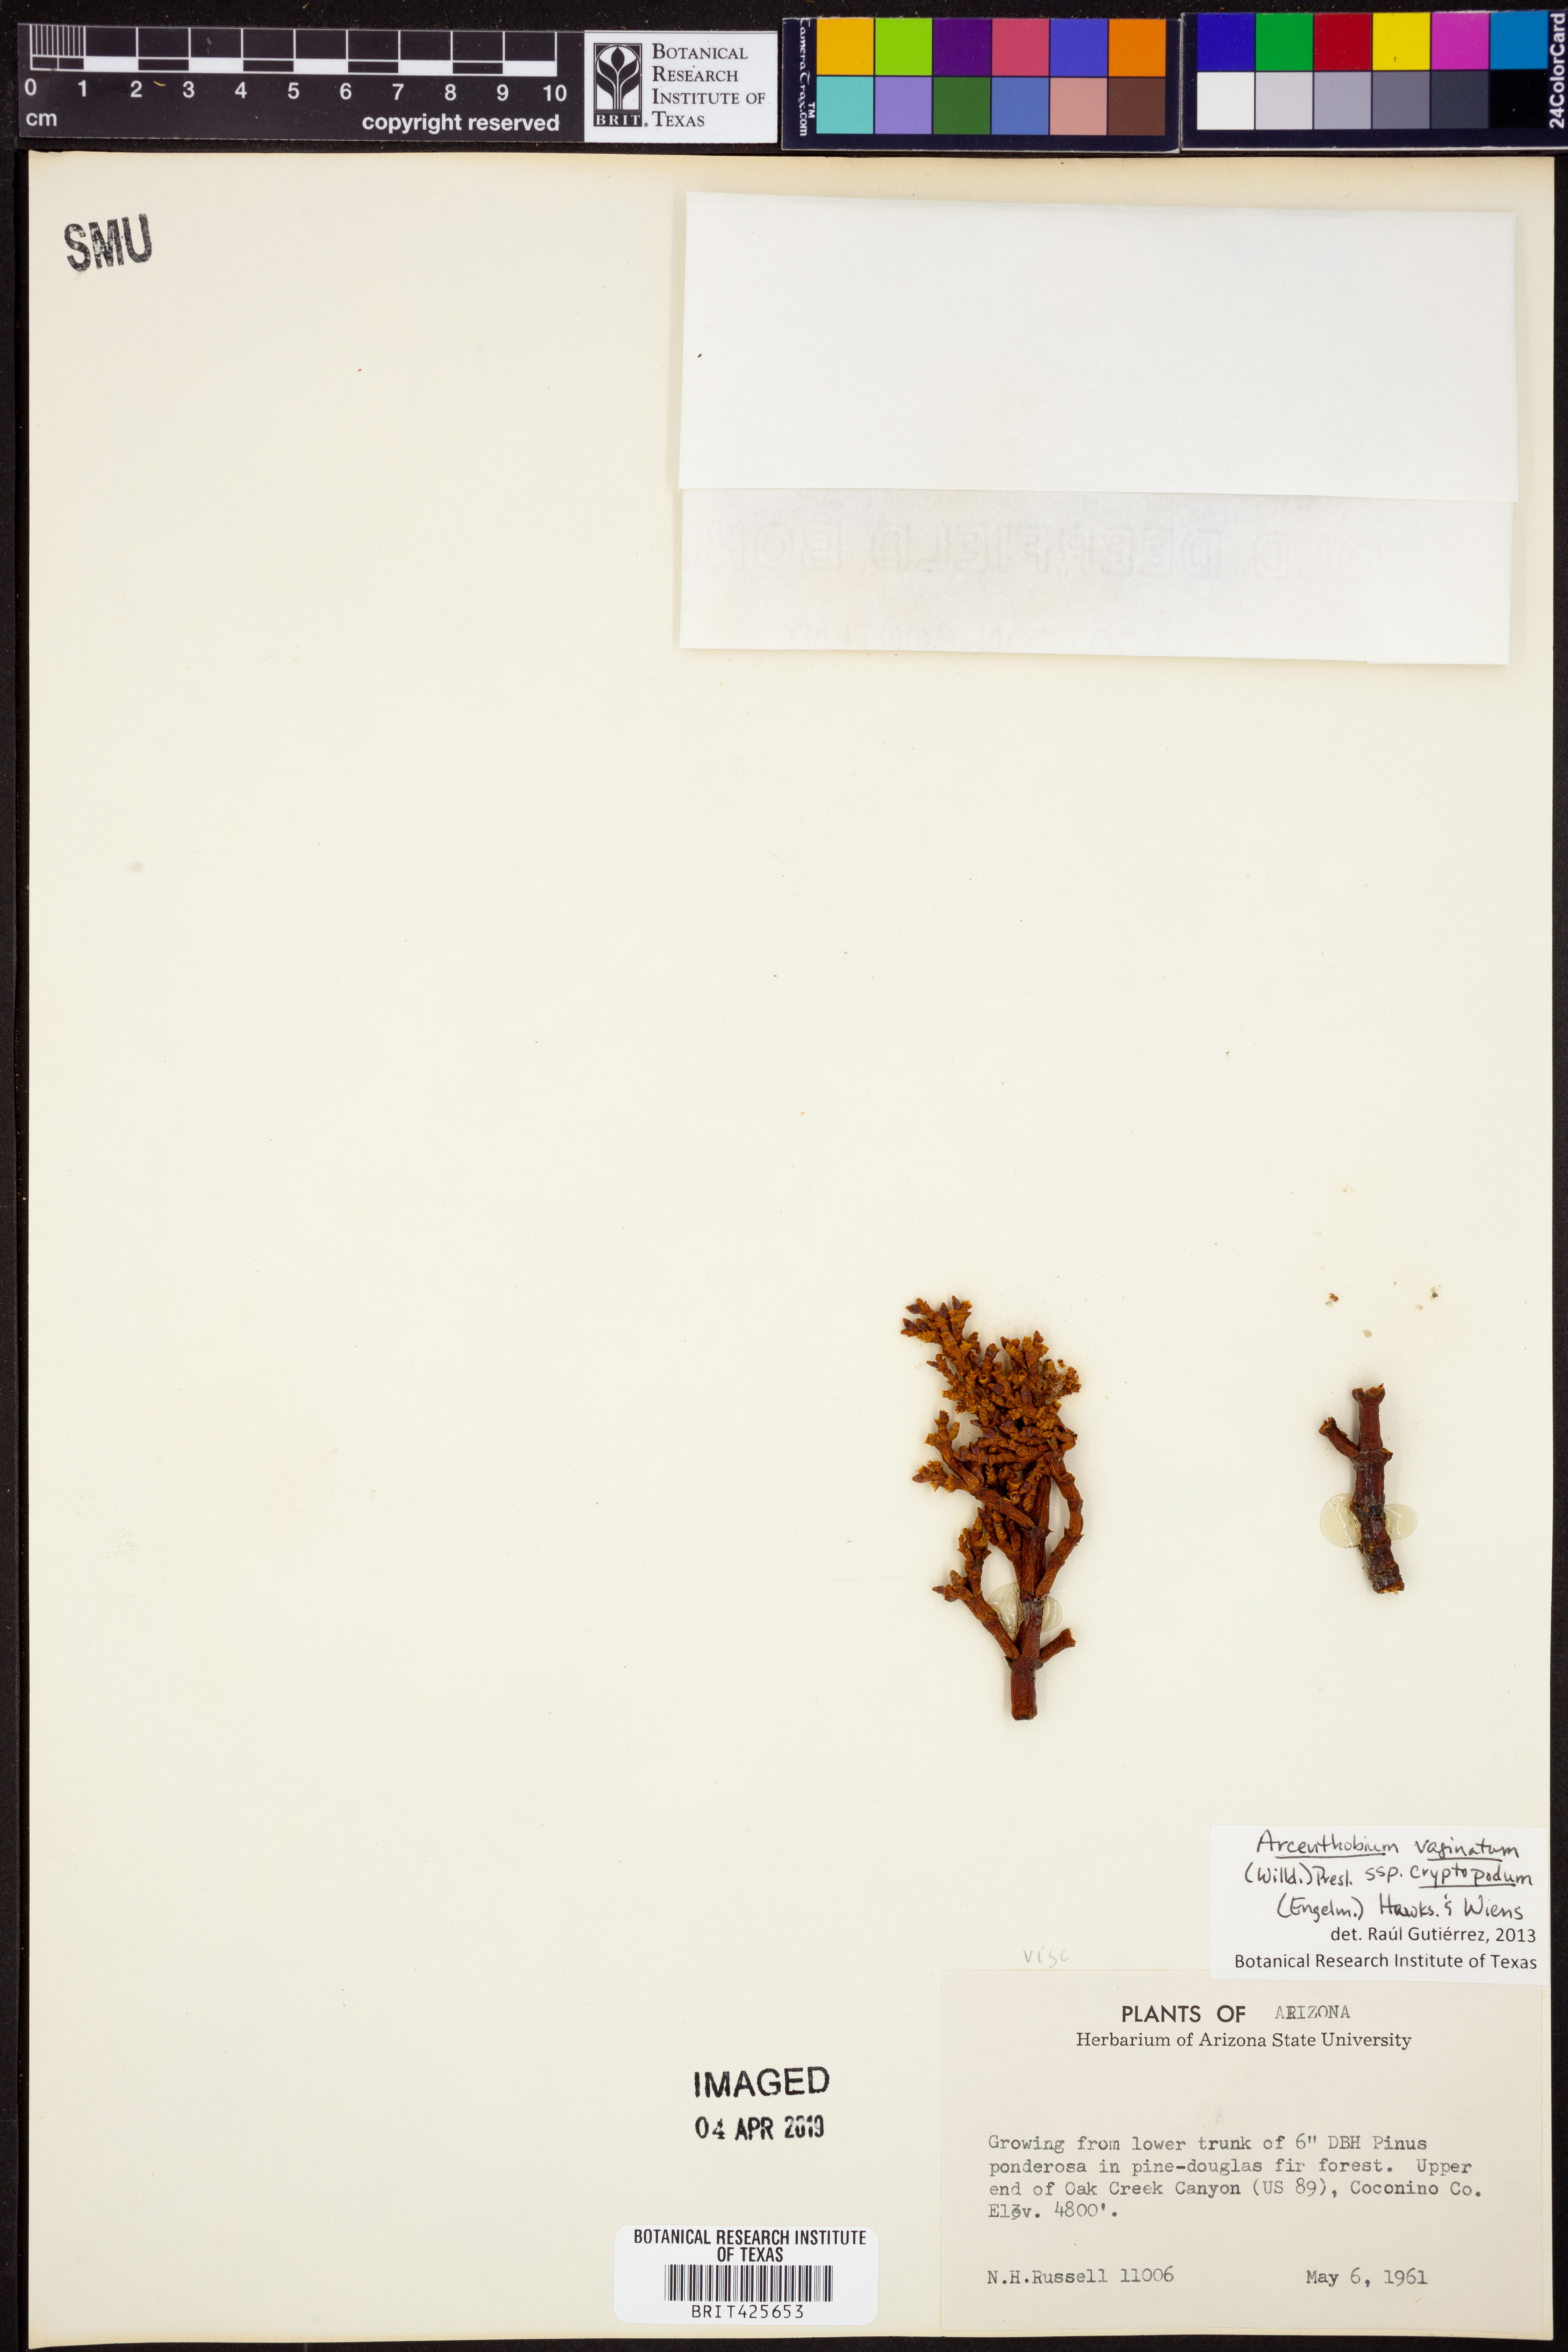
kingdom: Plantae
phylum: Tracheophyta
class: Magnoliopsida
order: Santalales
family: Viscaceae
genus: Arceuthobium
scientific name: Arceuthobium vaginatum
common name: Southwestern dwarf-mistletoe
